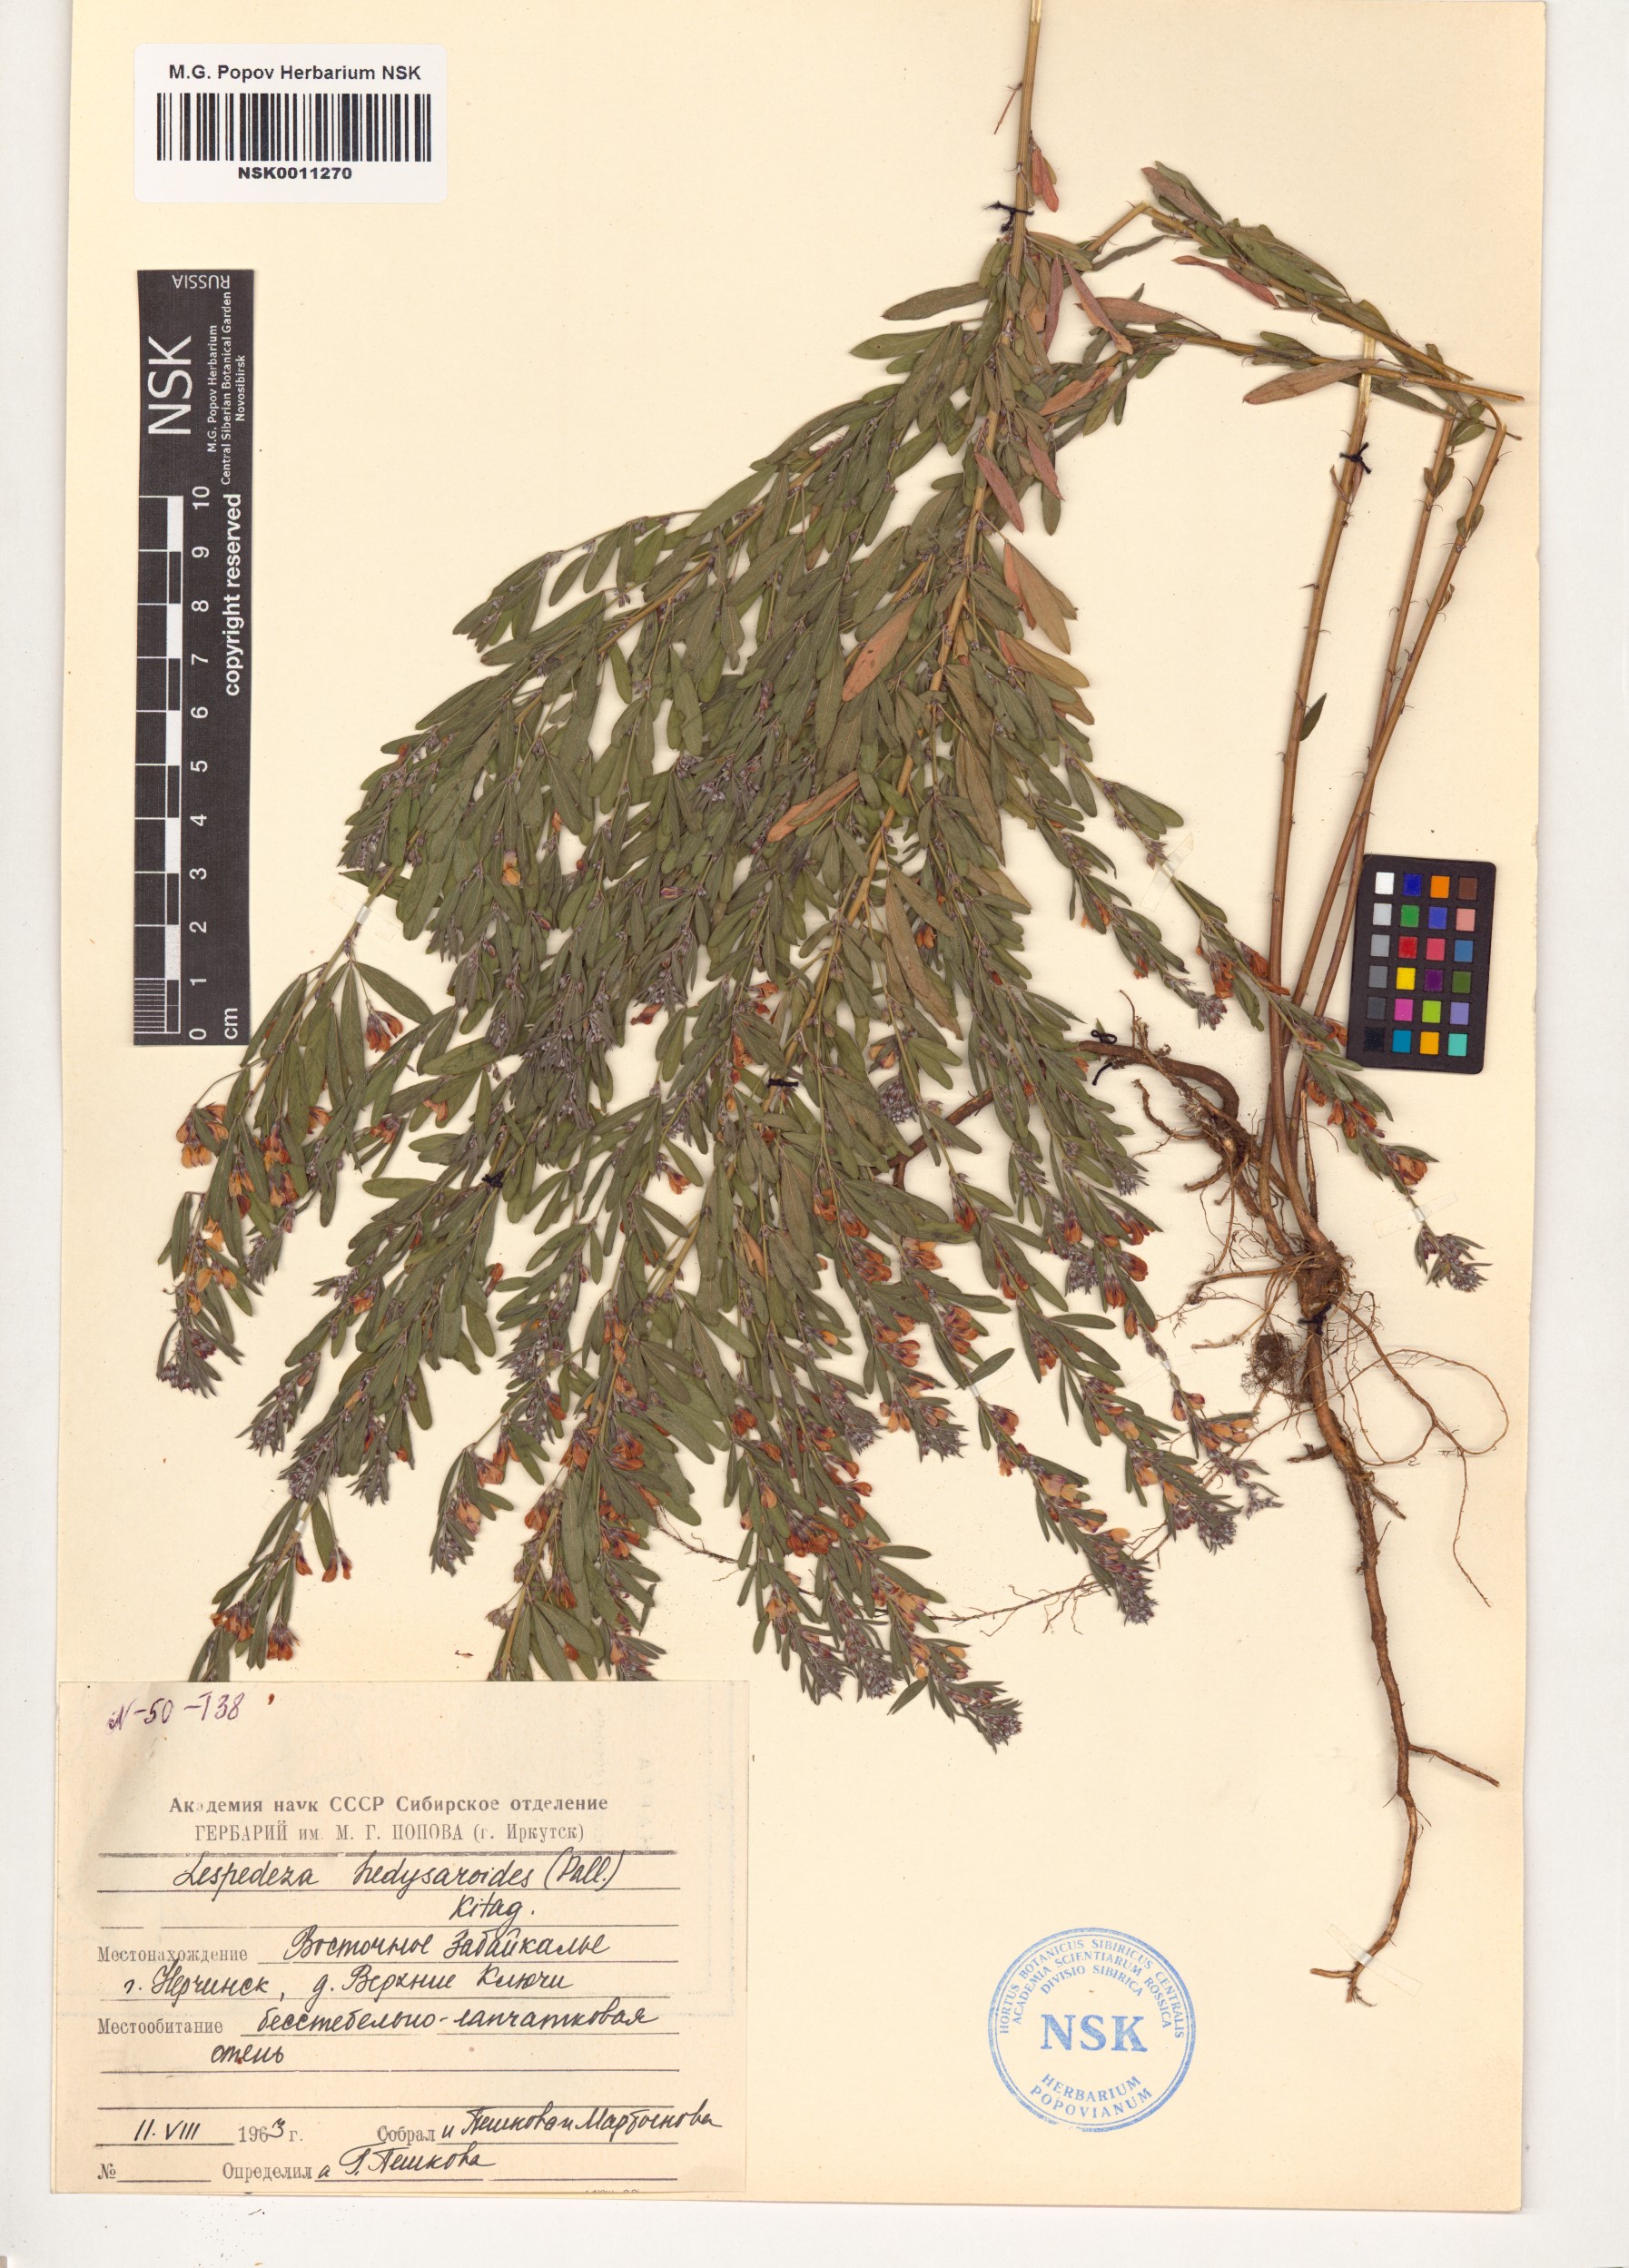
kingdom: Plantae
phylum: Tracheophyta
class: Magnoliopsida
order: Fabales
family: Fabaceae
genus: Lespedeza
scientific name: Lespedeza juncea
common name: Siberian lespedeza
